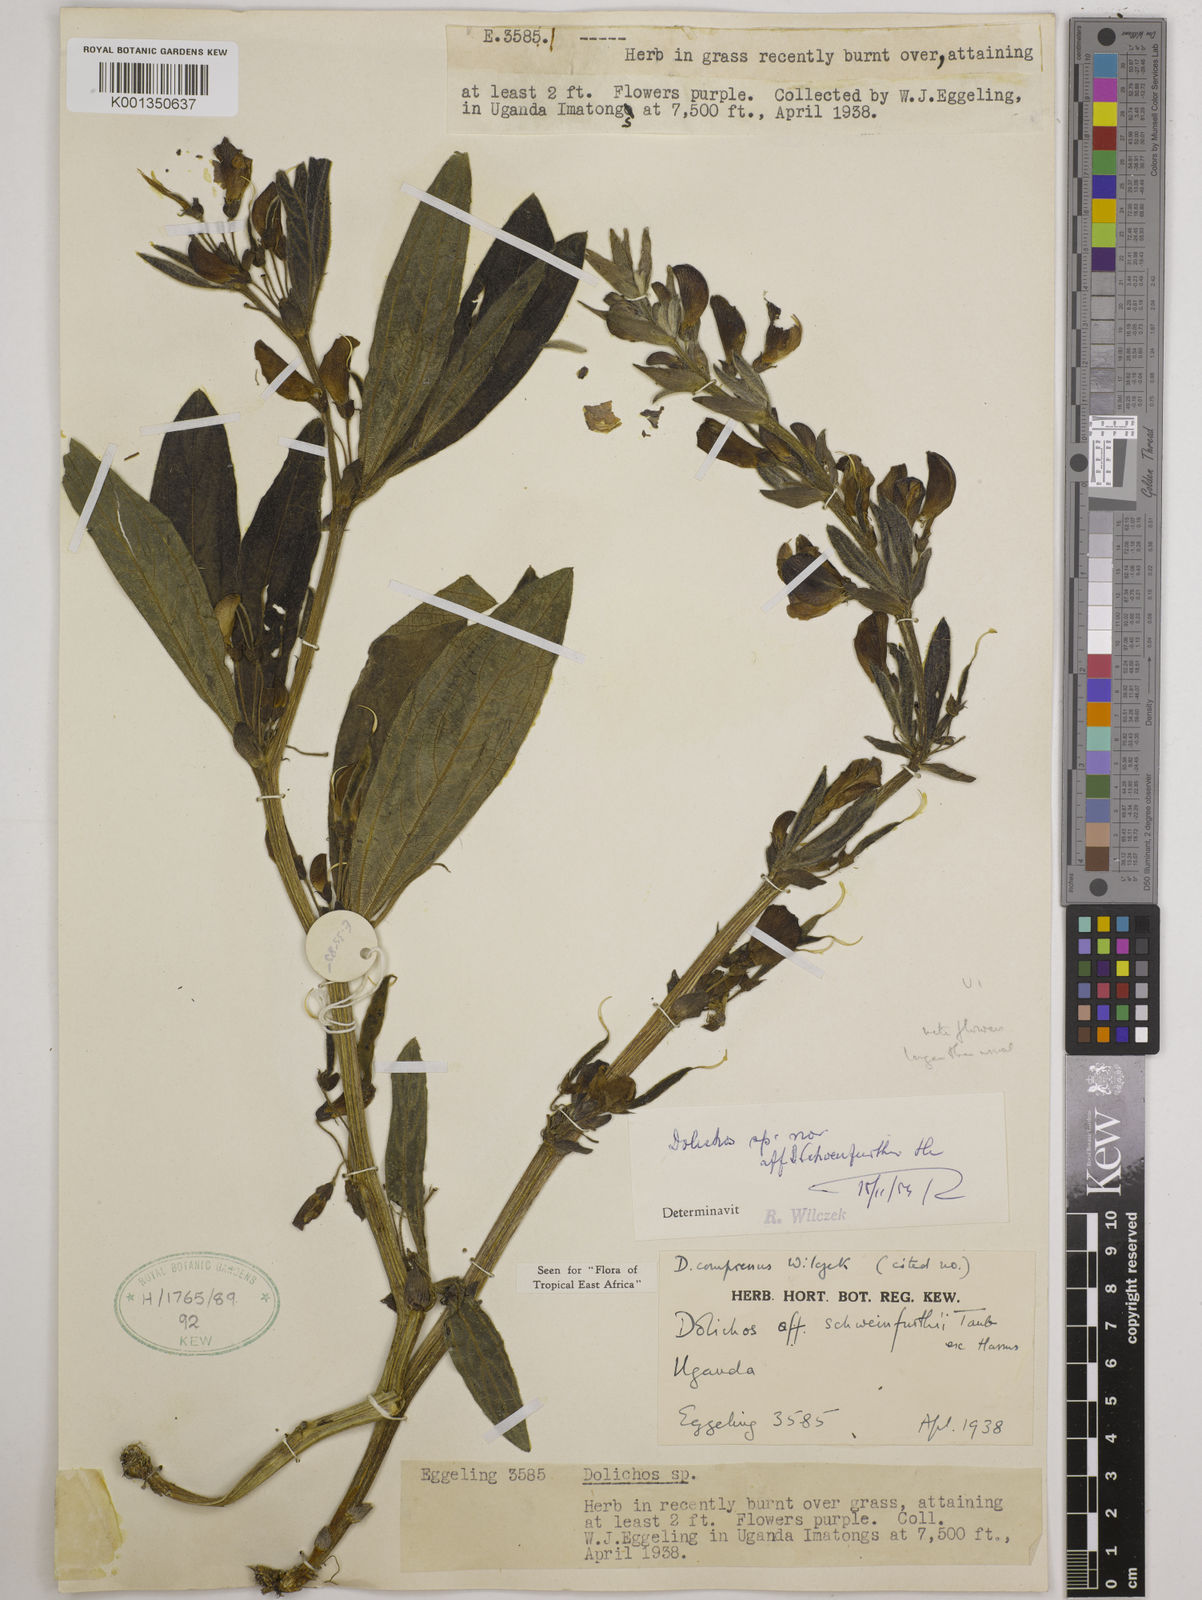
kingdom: Plantae
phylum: Tracheophyta
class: Magnoliopsida
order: Fabales
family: Fabaceae
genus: Dolichos
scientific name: Dolichos compressus
